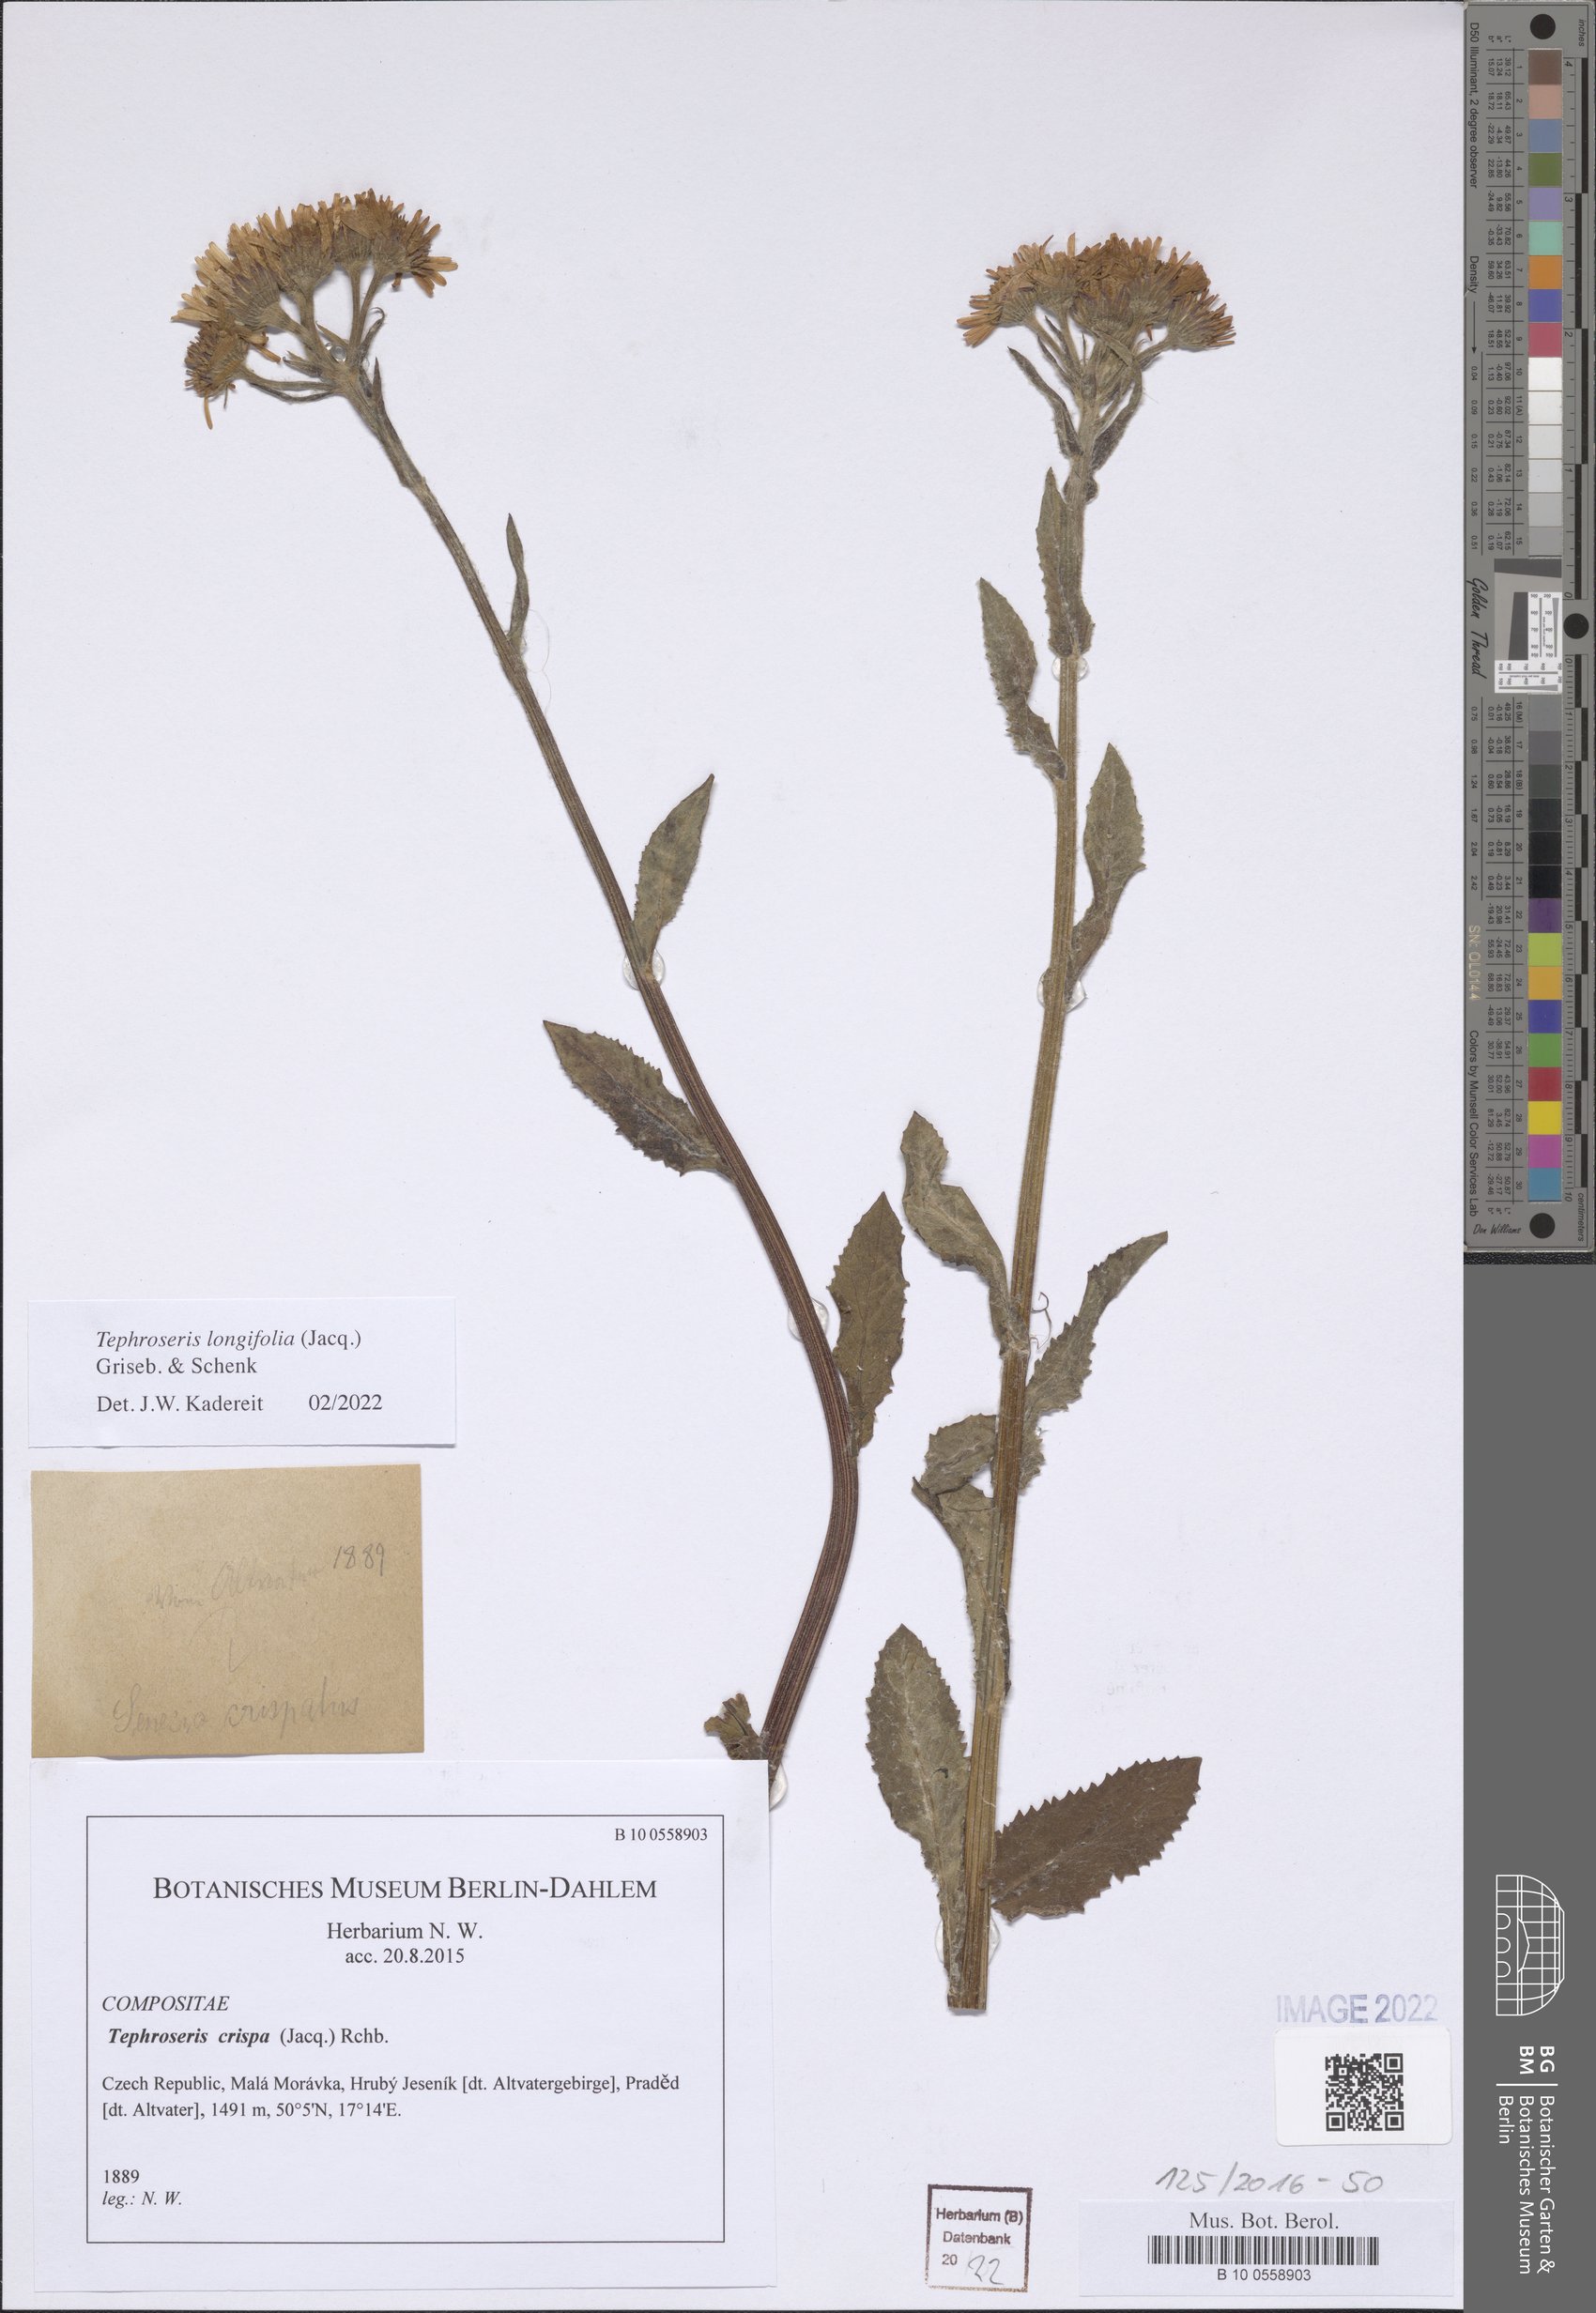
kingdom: Plantae
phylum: Tracheophyta
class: Magnoliopsida
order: Asterales
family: Asteraceae
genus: Tephroseris
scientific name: Tephroseris longifolia
